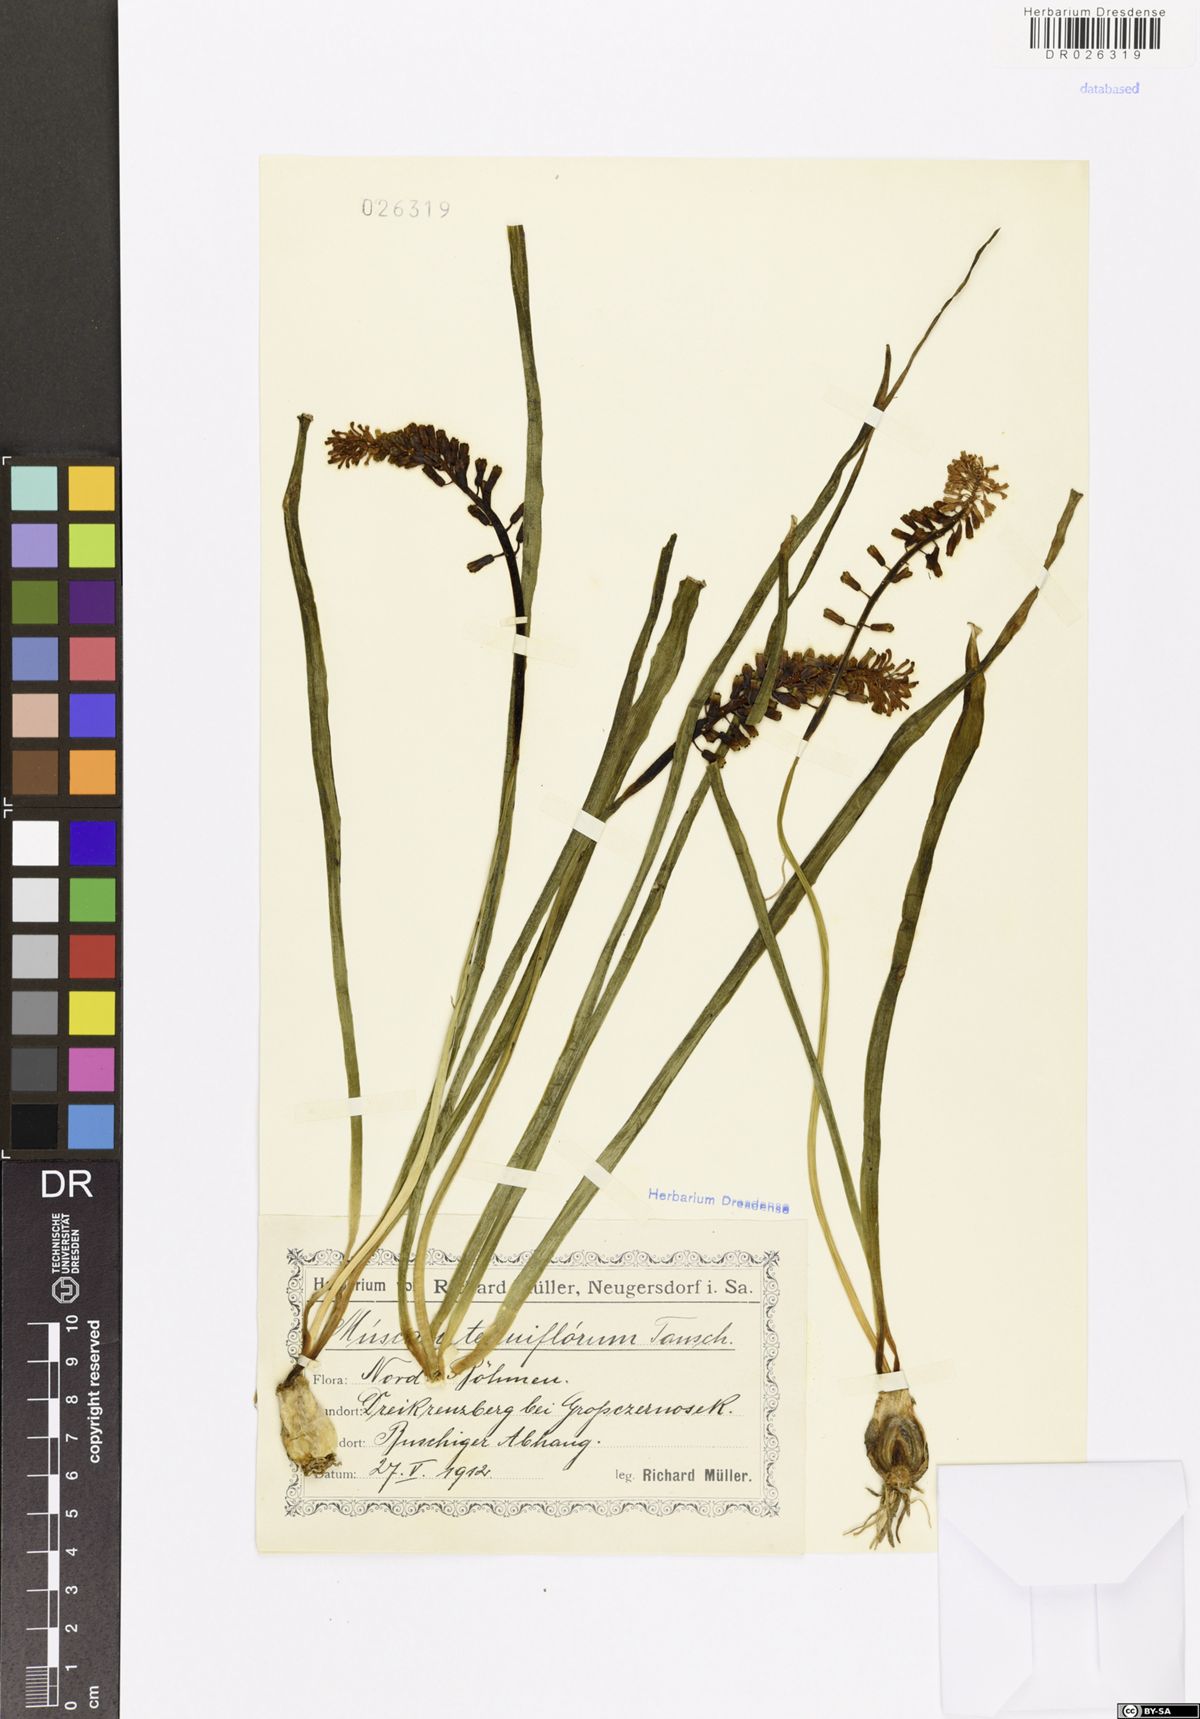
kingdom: Plantae
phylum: Tracheophyta
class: Liliopsida
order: Asparagales
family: Asparagaceae
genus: Muscari
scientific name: Muscari tenuiflorum
